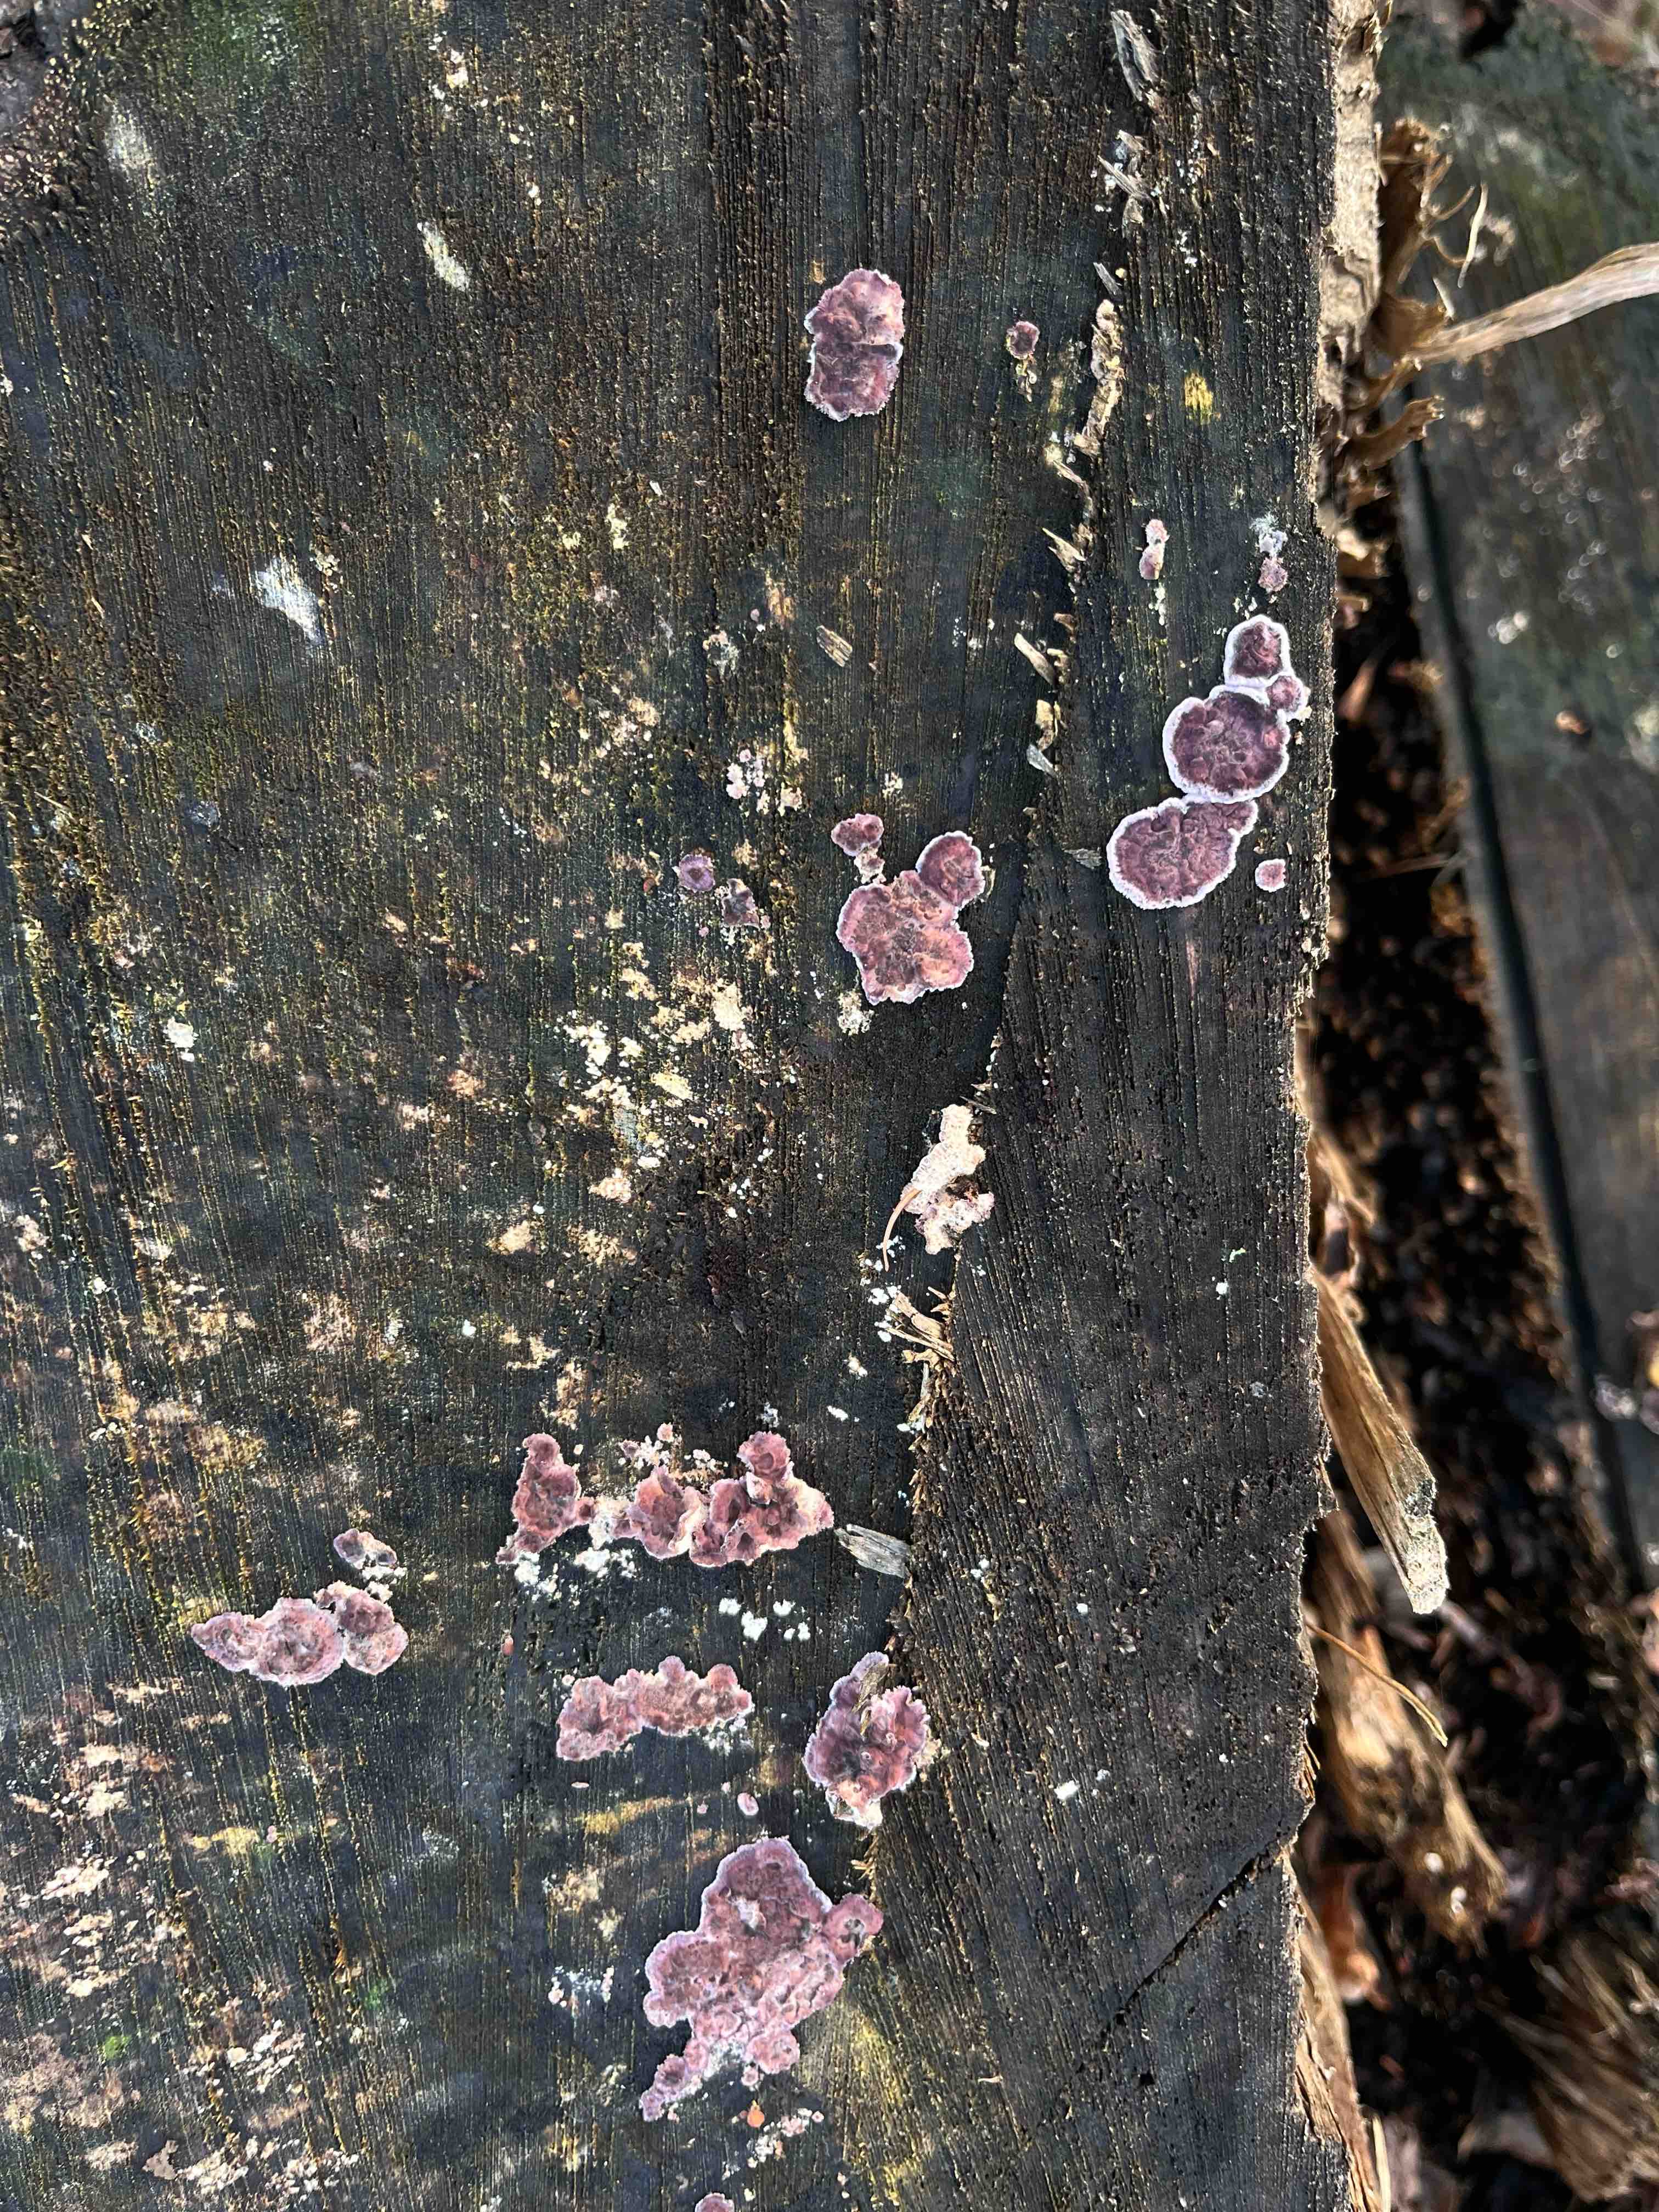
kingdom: Fungi
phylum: Basidiomycota
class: Agaricomycetes
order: Agaricales
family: Cyphellaceae
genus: Chondrostereum
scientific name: Chondrostereum purpureum
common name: purpurlædersvamp
